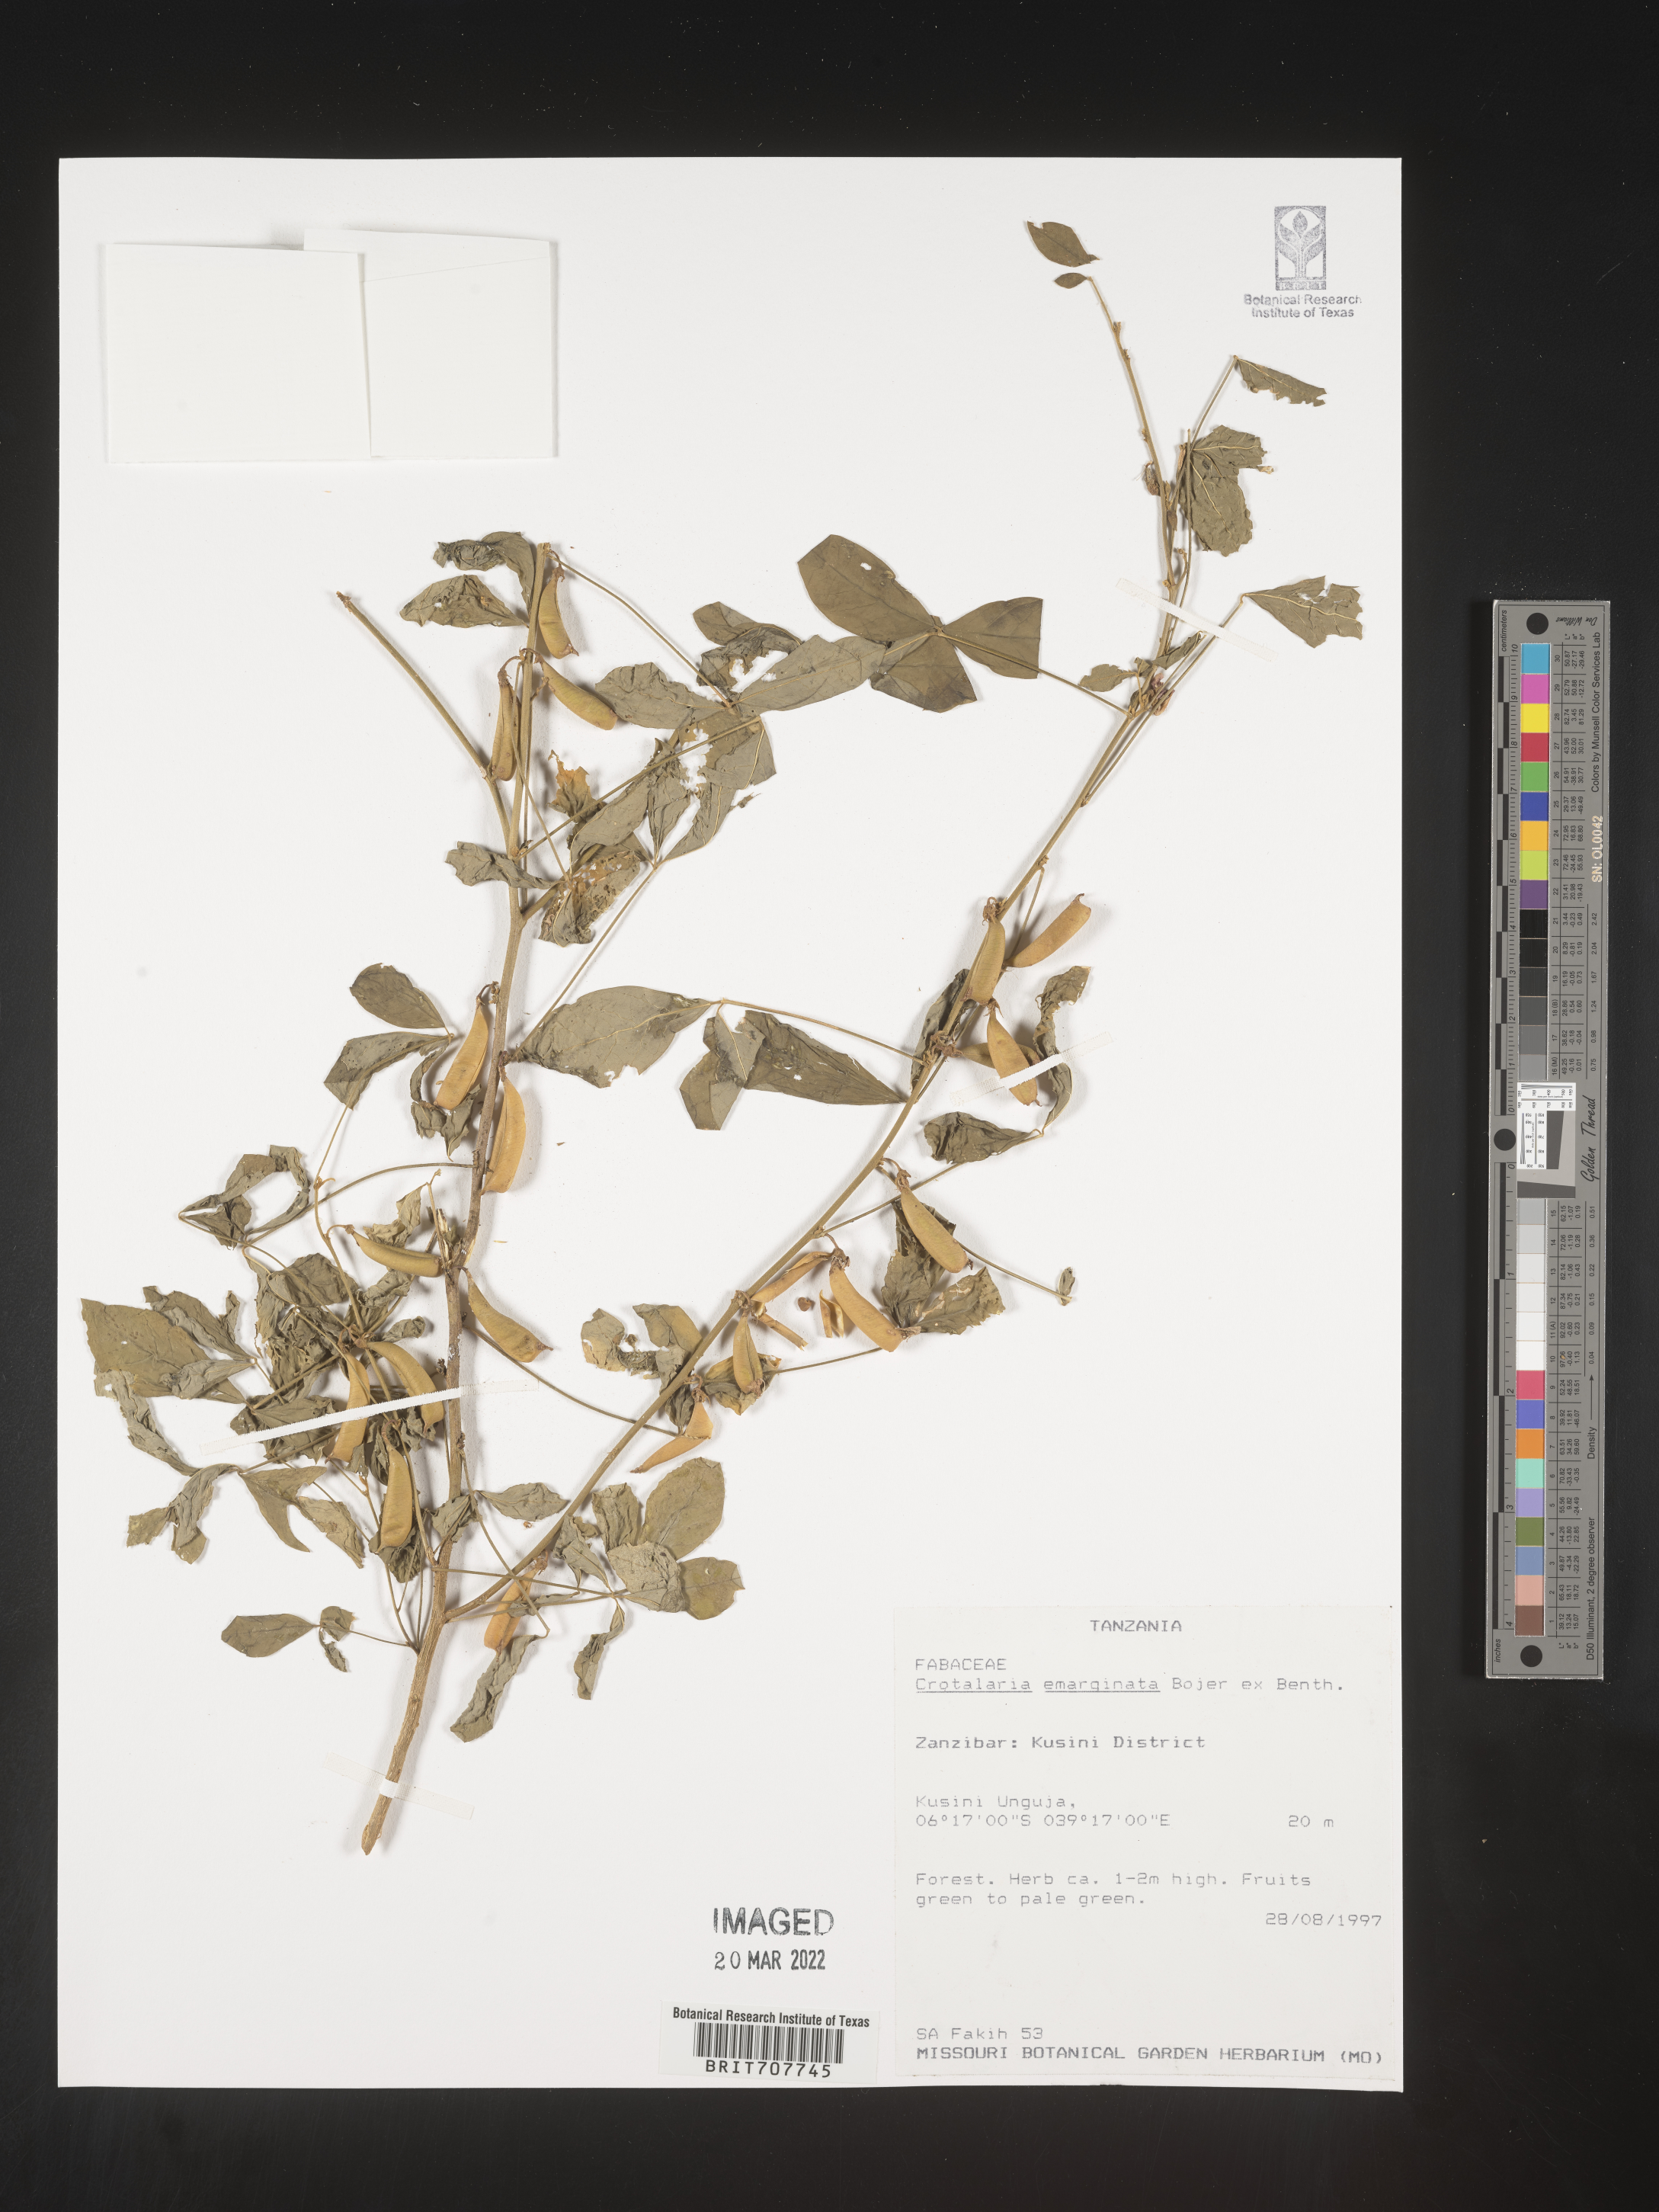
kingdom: Plantae
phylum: Tracheophyta
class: Magnoliopsida
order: Fabales
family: Fabaceae
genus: Crotalaria
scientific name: Crotalaria
